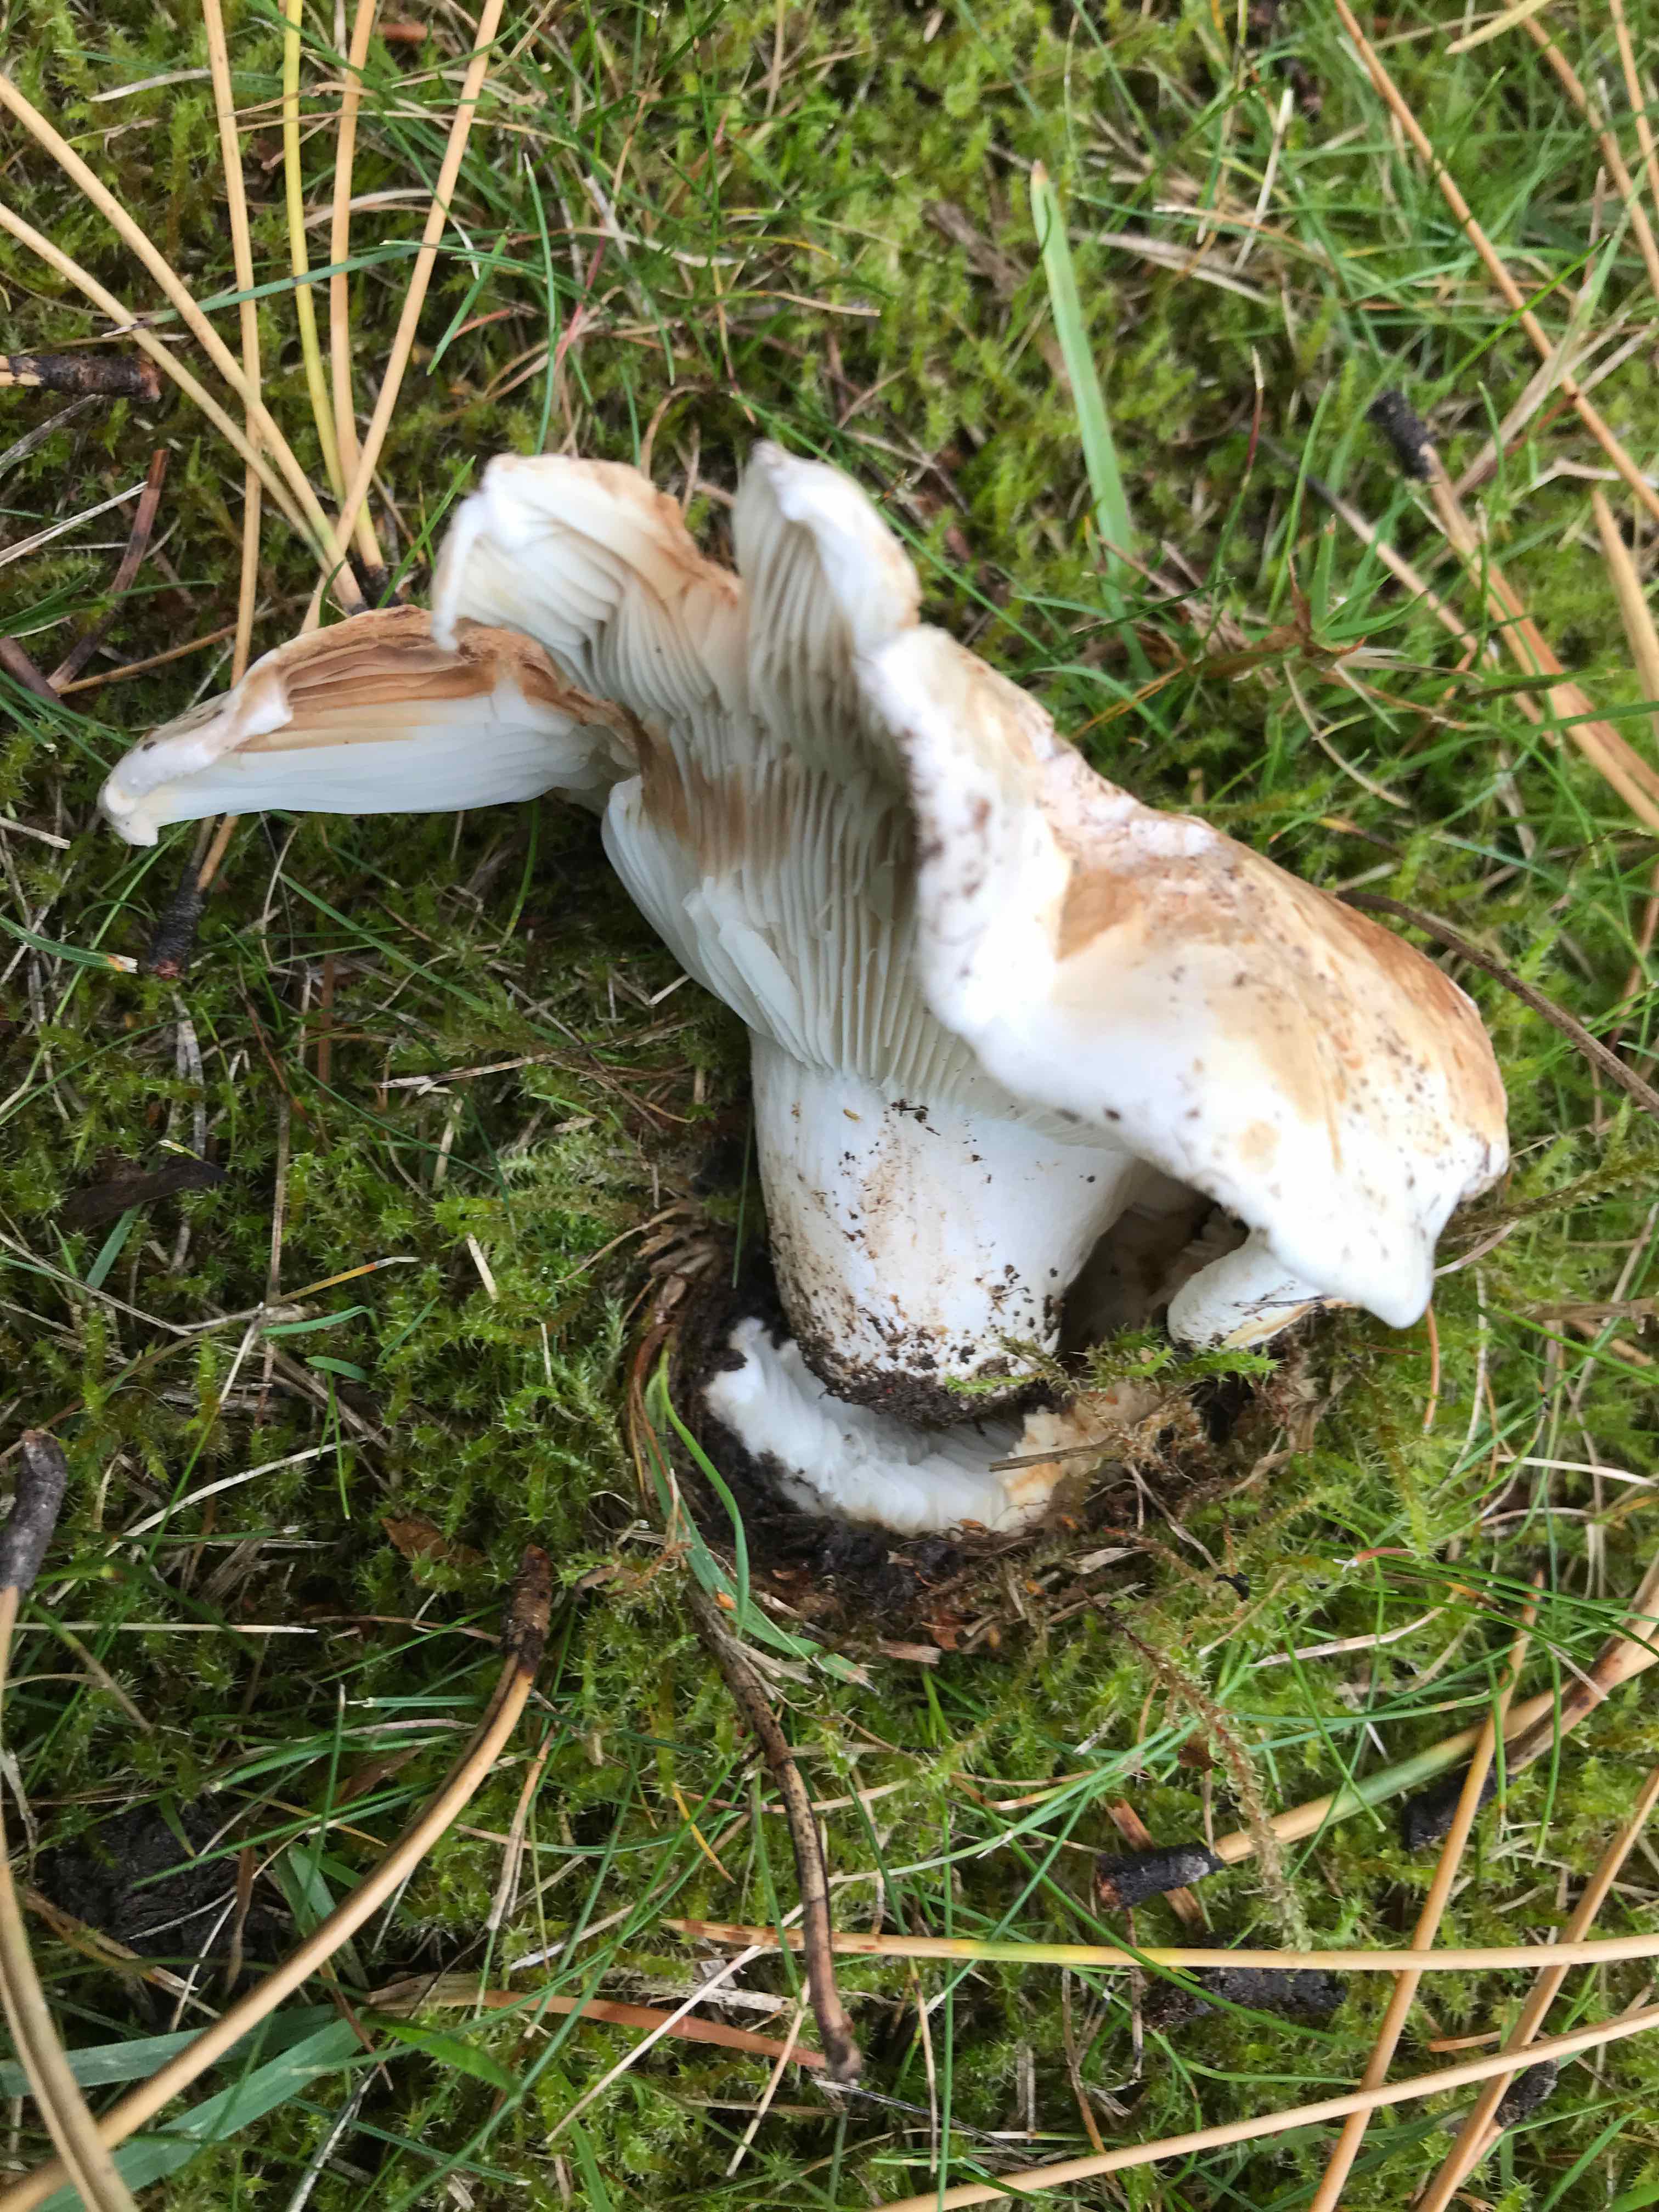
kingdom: Fungi
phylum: Basidiomycota
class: Agaricomycetes
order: Russulales
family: Russulaceae
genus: Russula
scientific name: Russula delica
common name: almindelig tragt-skørhat
